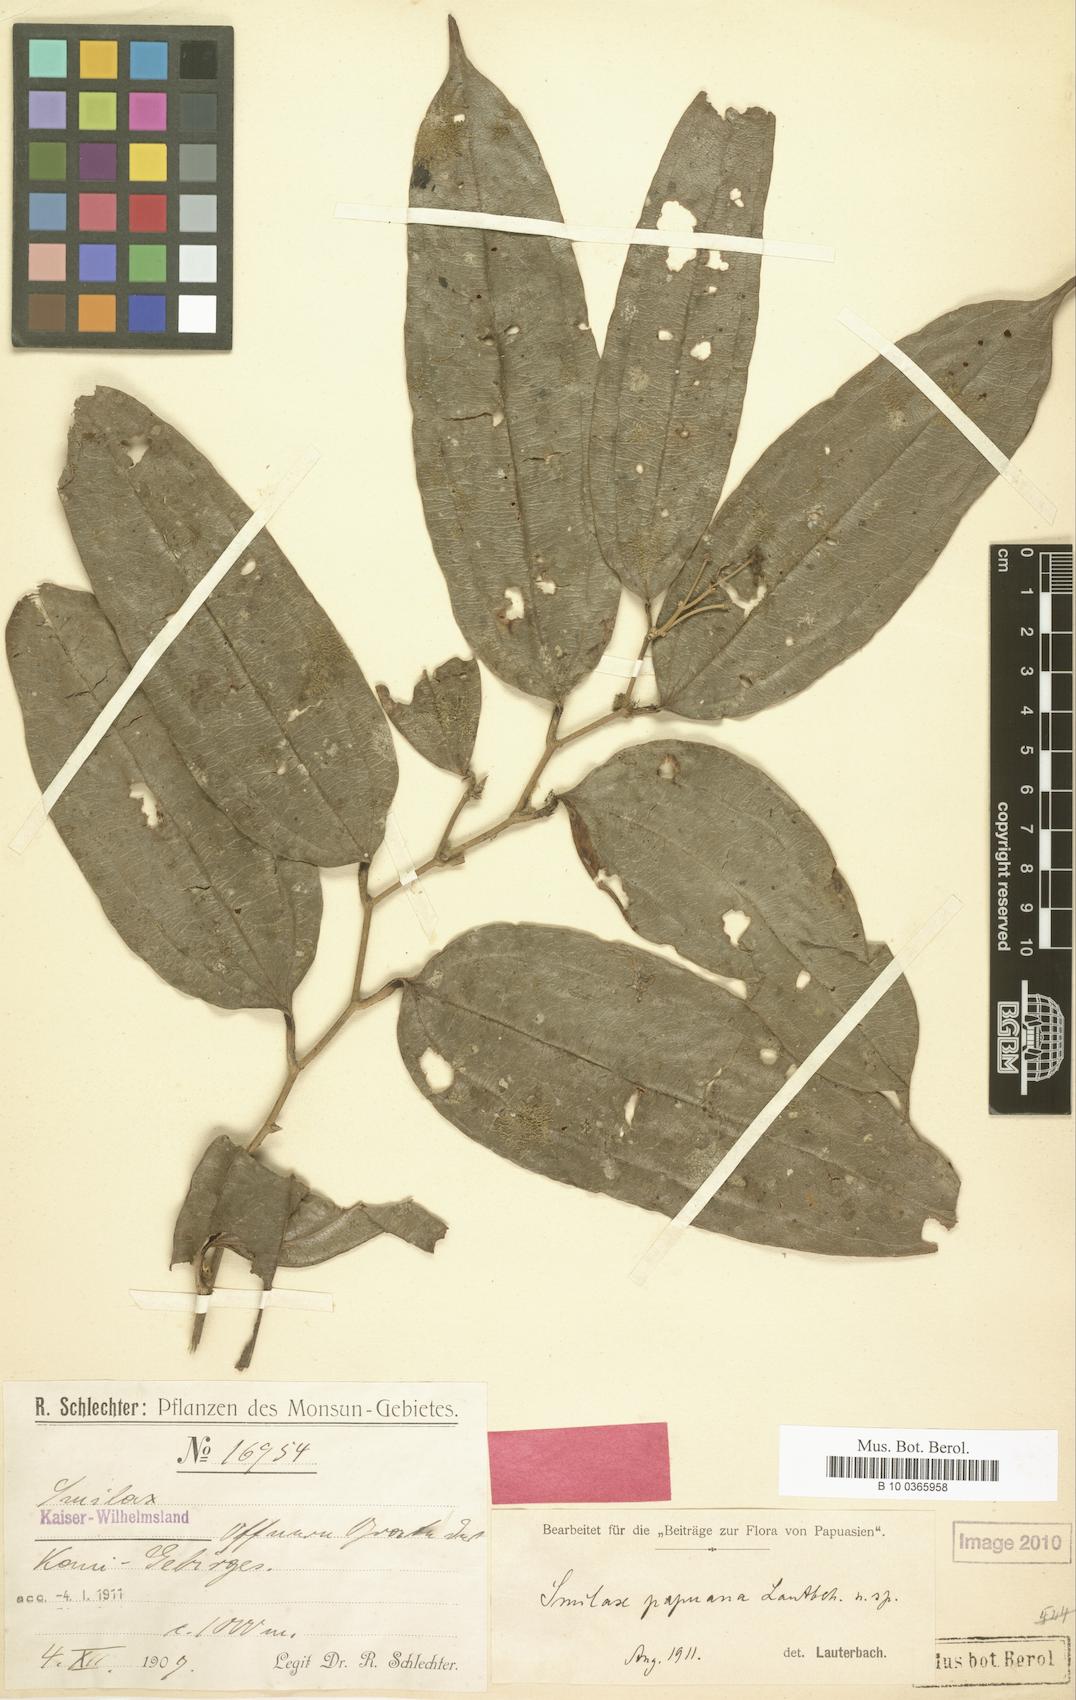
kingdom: Plantae
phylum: Tracheophyta
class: Liliopsida
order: Liliales
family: Smilacaceae
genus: Smilax
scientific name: Smilax papuana
